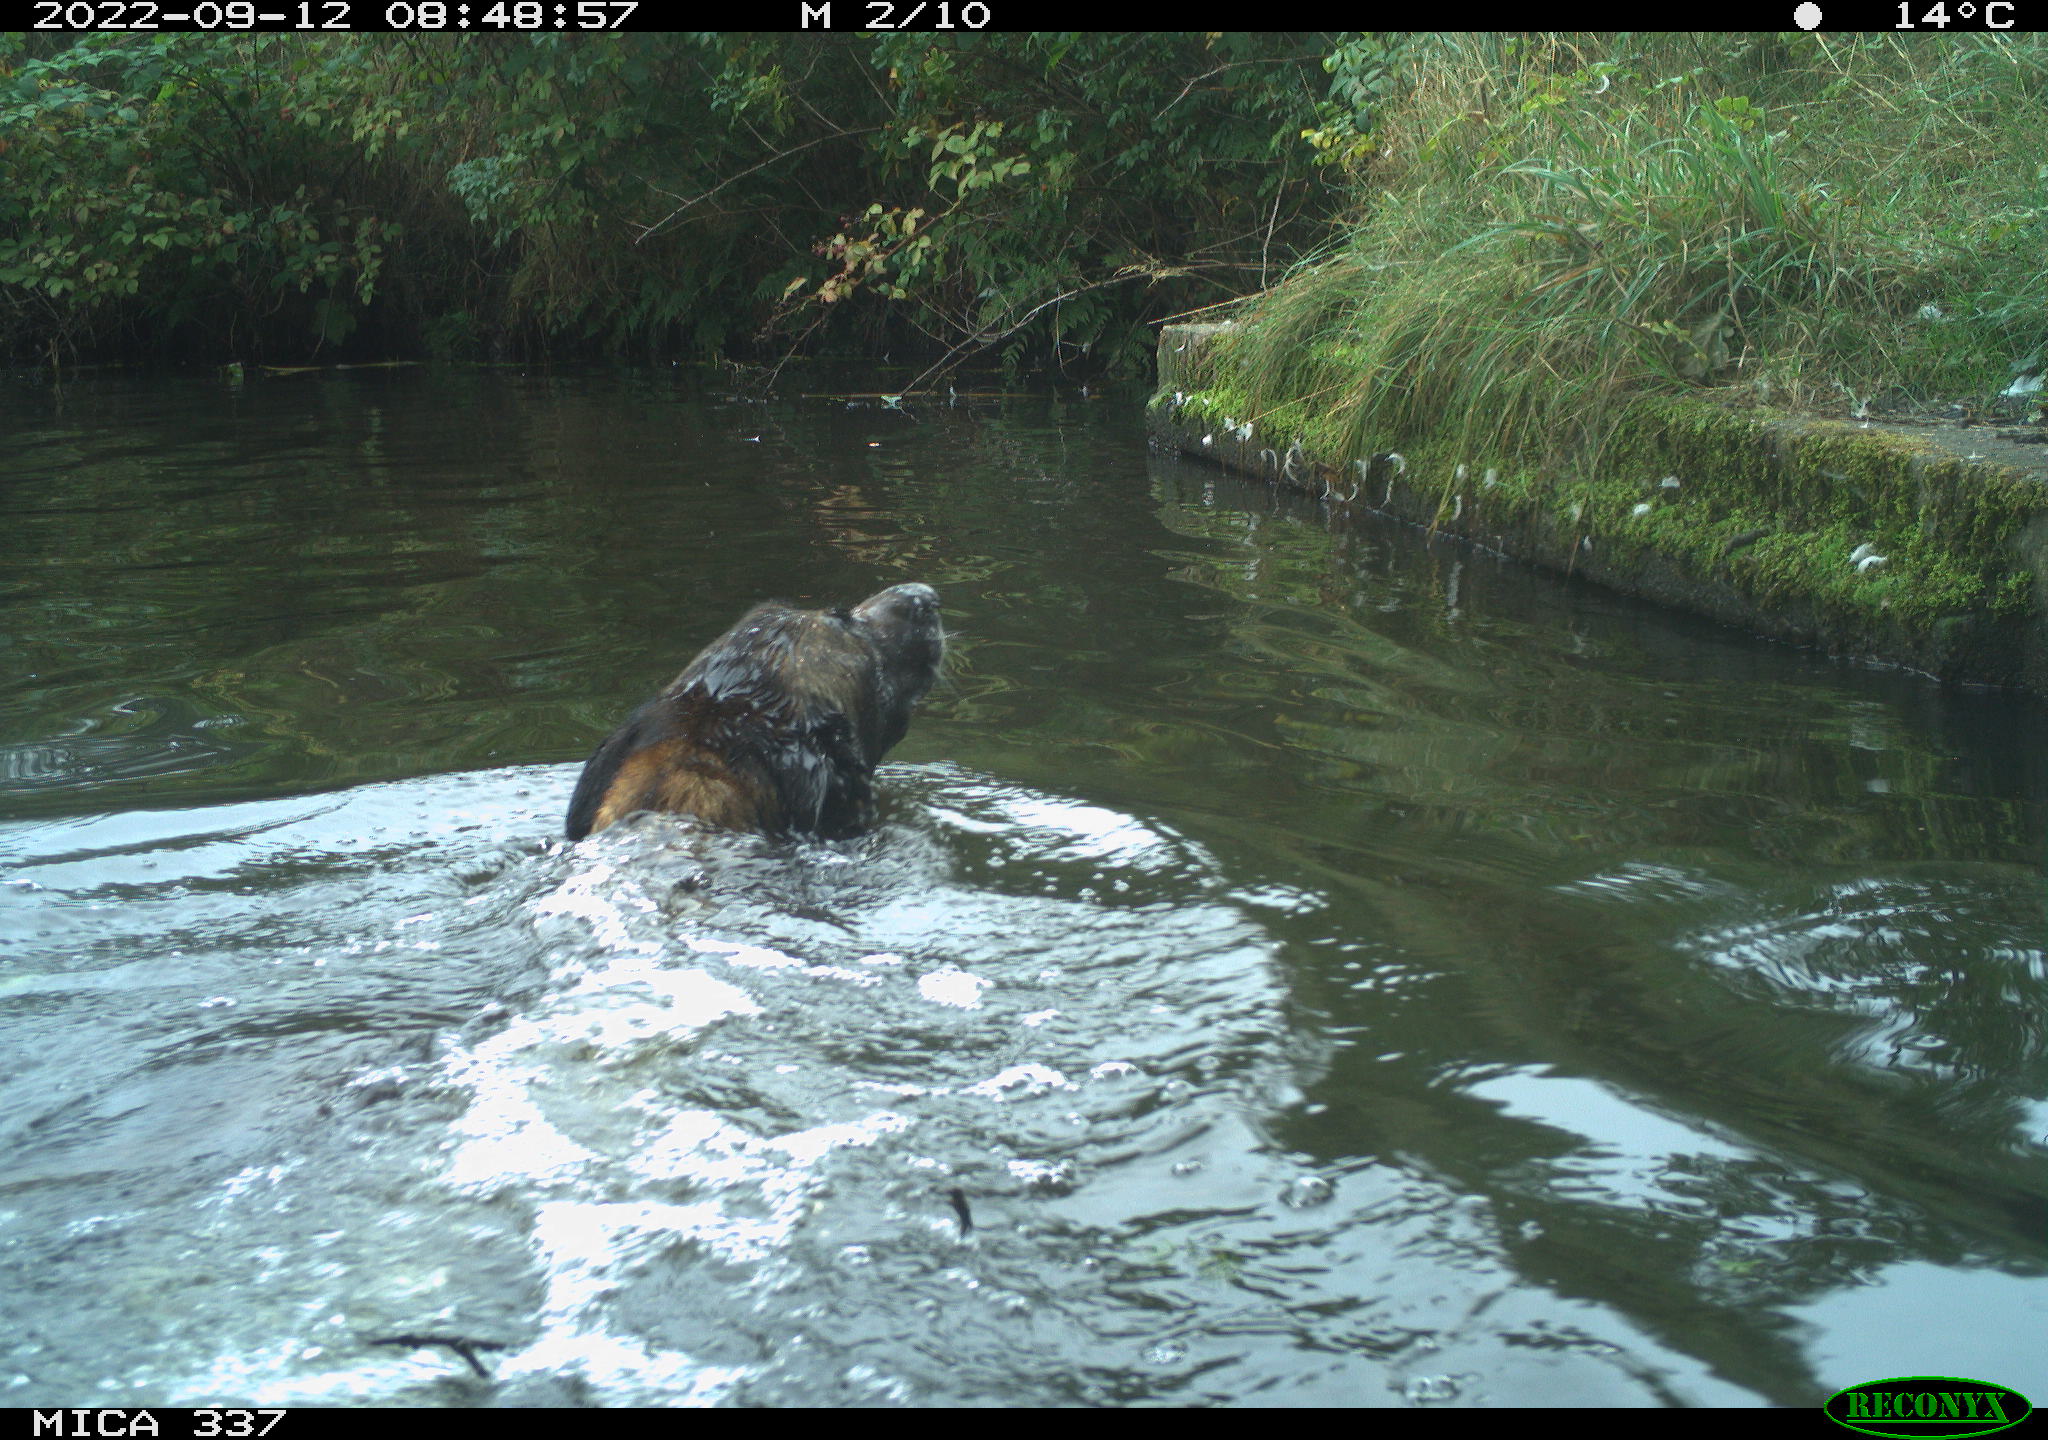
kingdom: Animalia
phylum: Chordata
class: Mammalia
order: Carnivora
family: Canidae
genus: Canis
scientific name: Canis lupus
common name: Gray wolf
